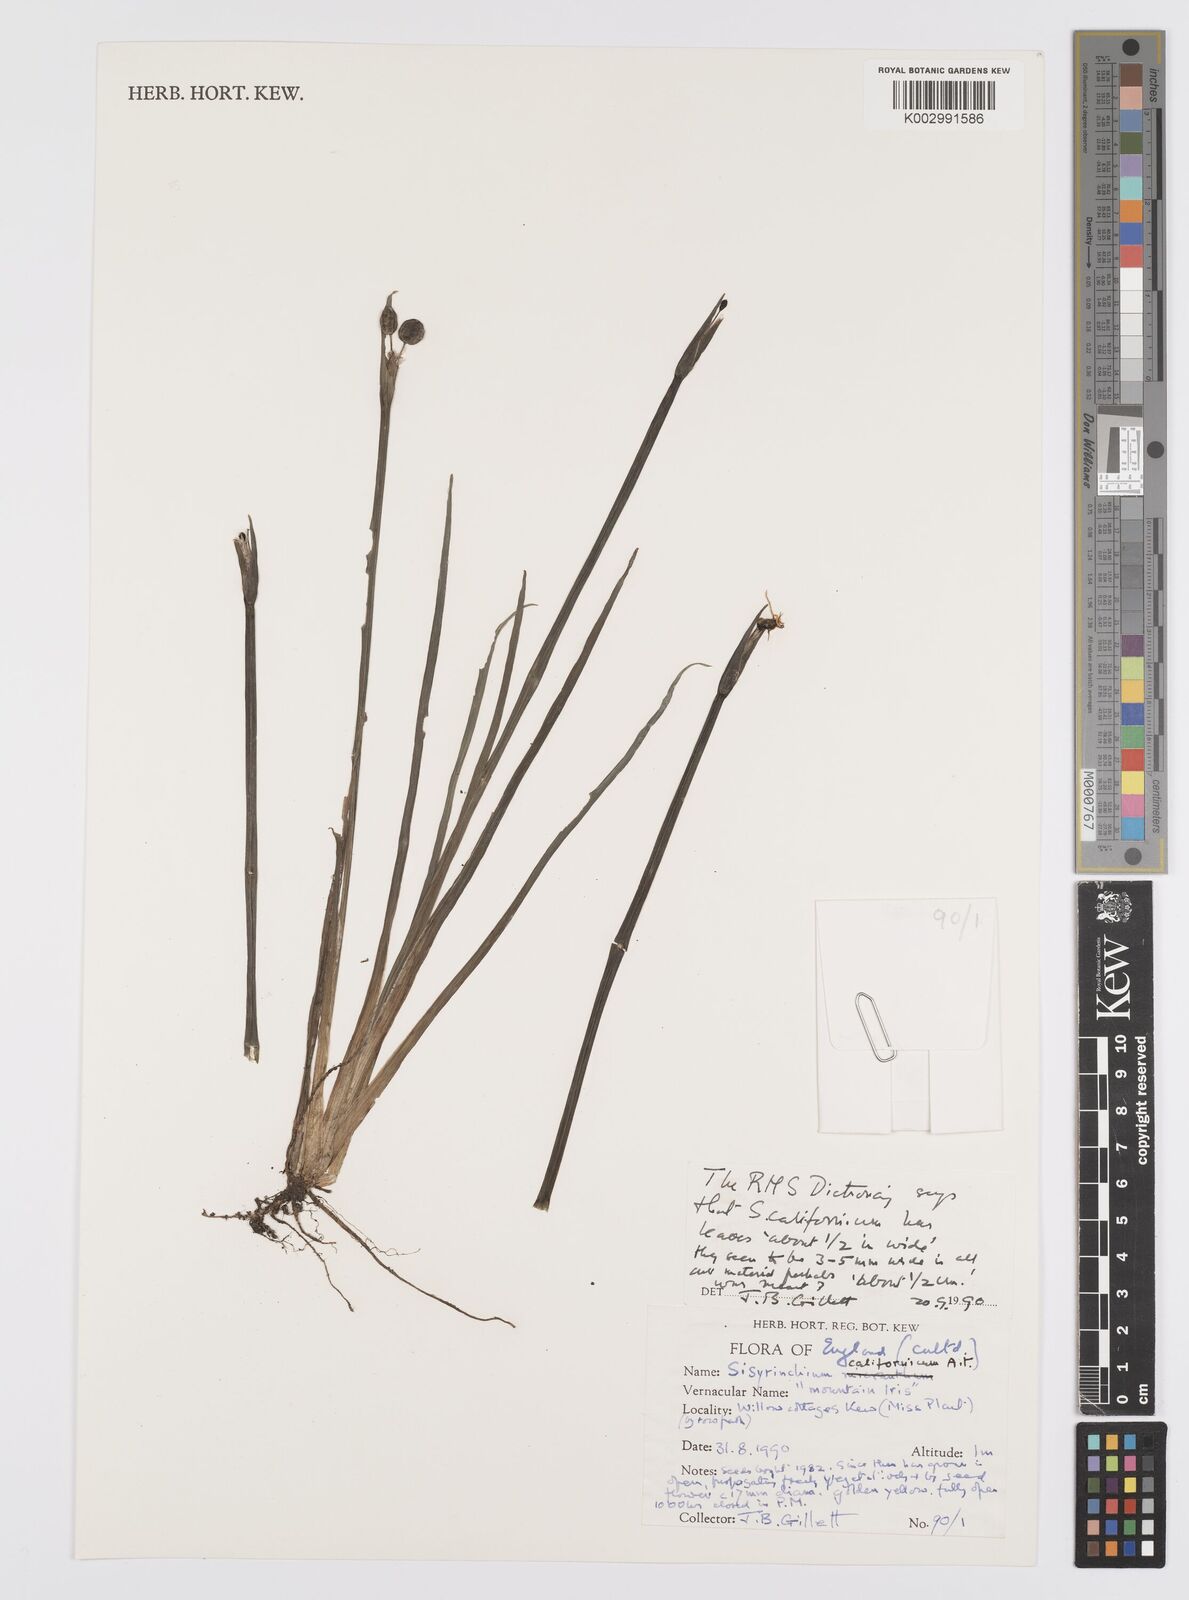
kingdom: Plantae
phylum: Tracheophyta
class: Liliopsida
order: Asparagales
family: Iridaceae
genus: Sisyrinchium
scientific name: Sisyrinchium californicum
